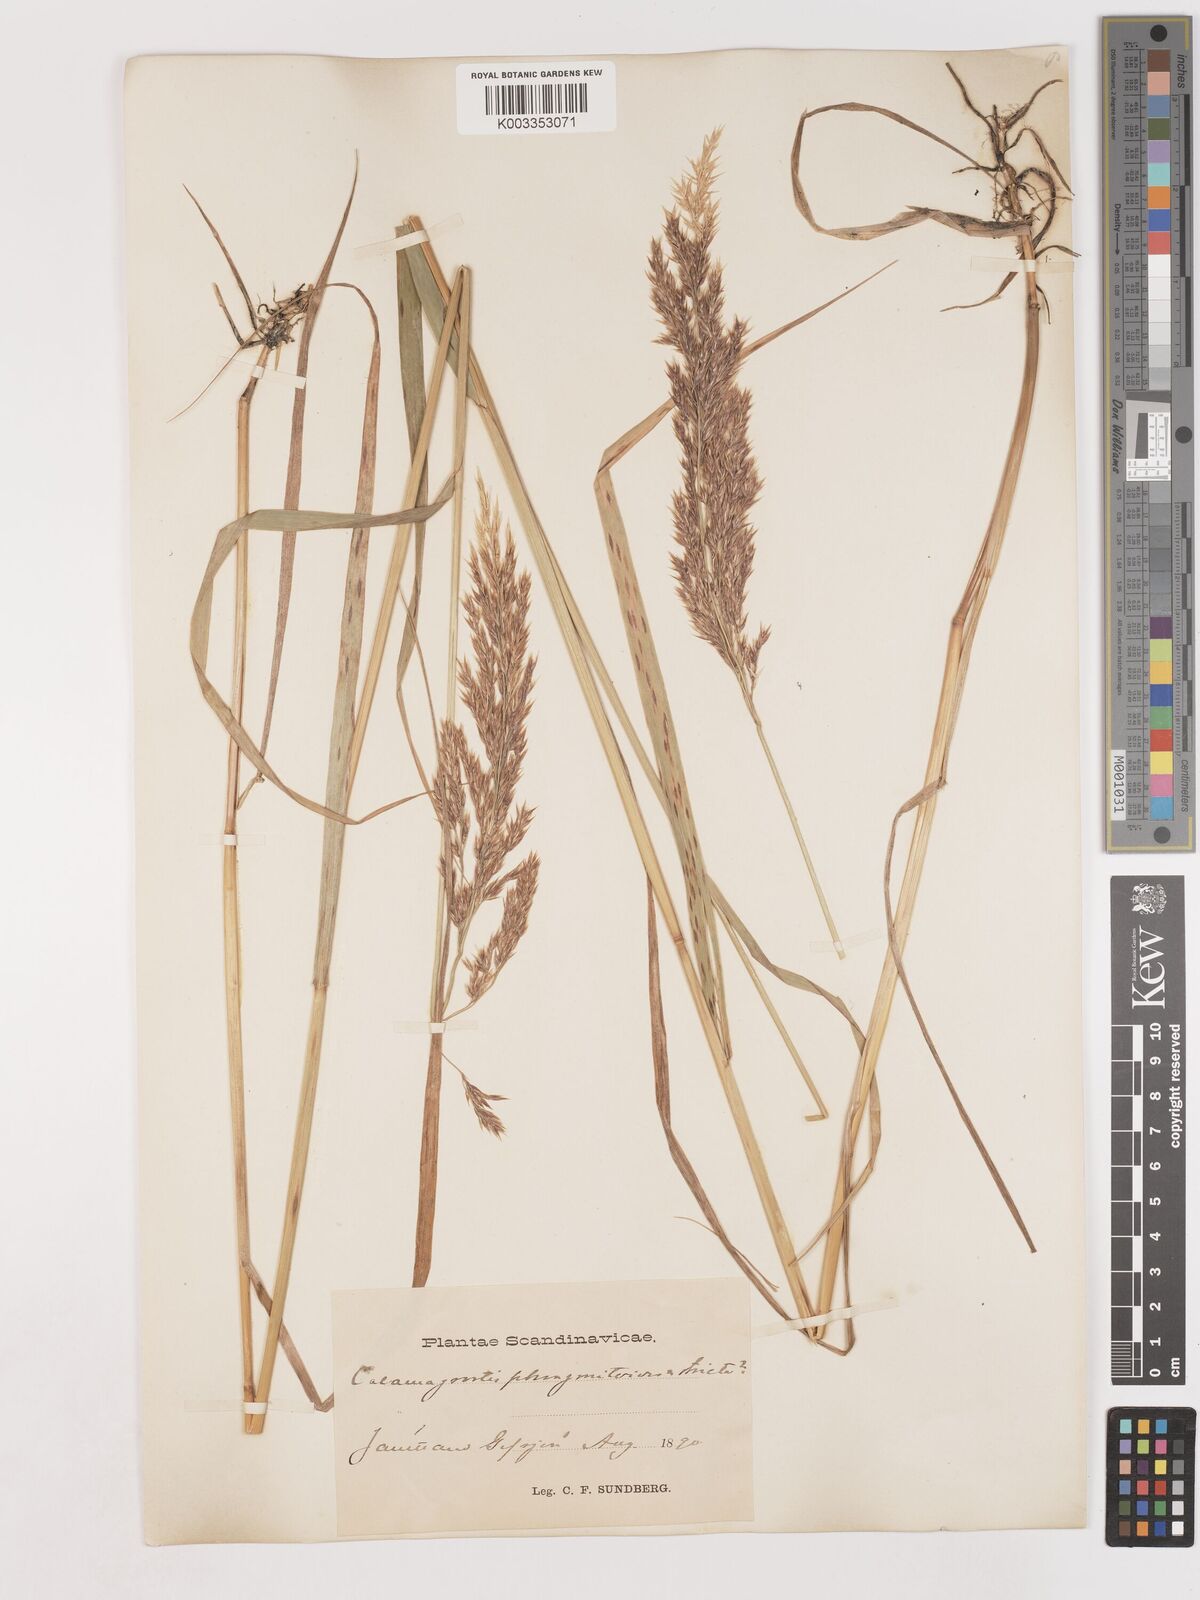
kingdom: Plantae
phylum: Tracheophyta
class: Liliopsida
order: Poales
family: Poaceae
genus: Calamagrostis
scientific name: Calamagrostis epigejos
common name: Wood small-reed
